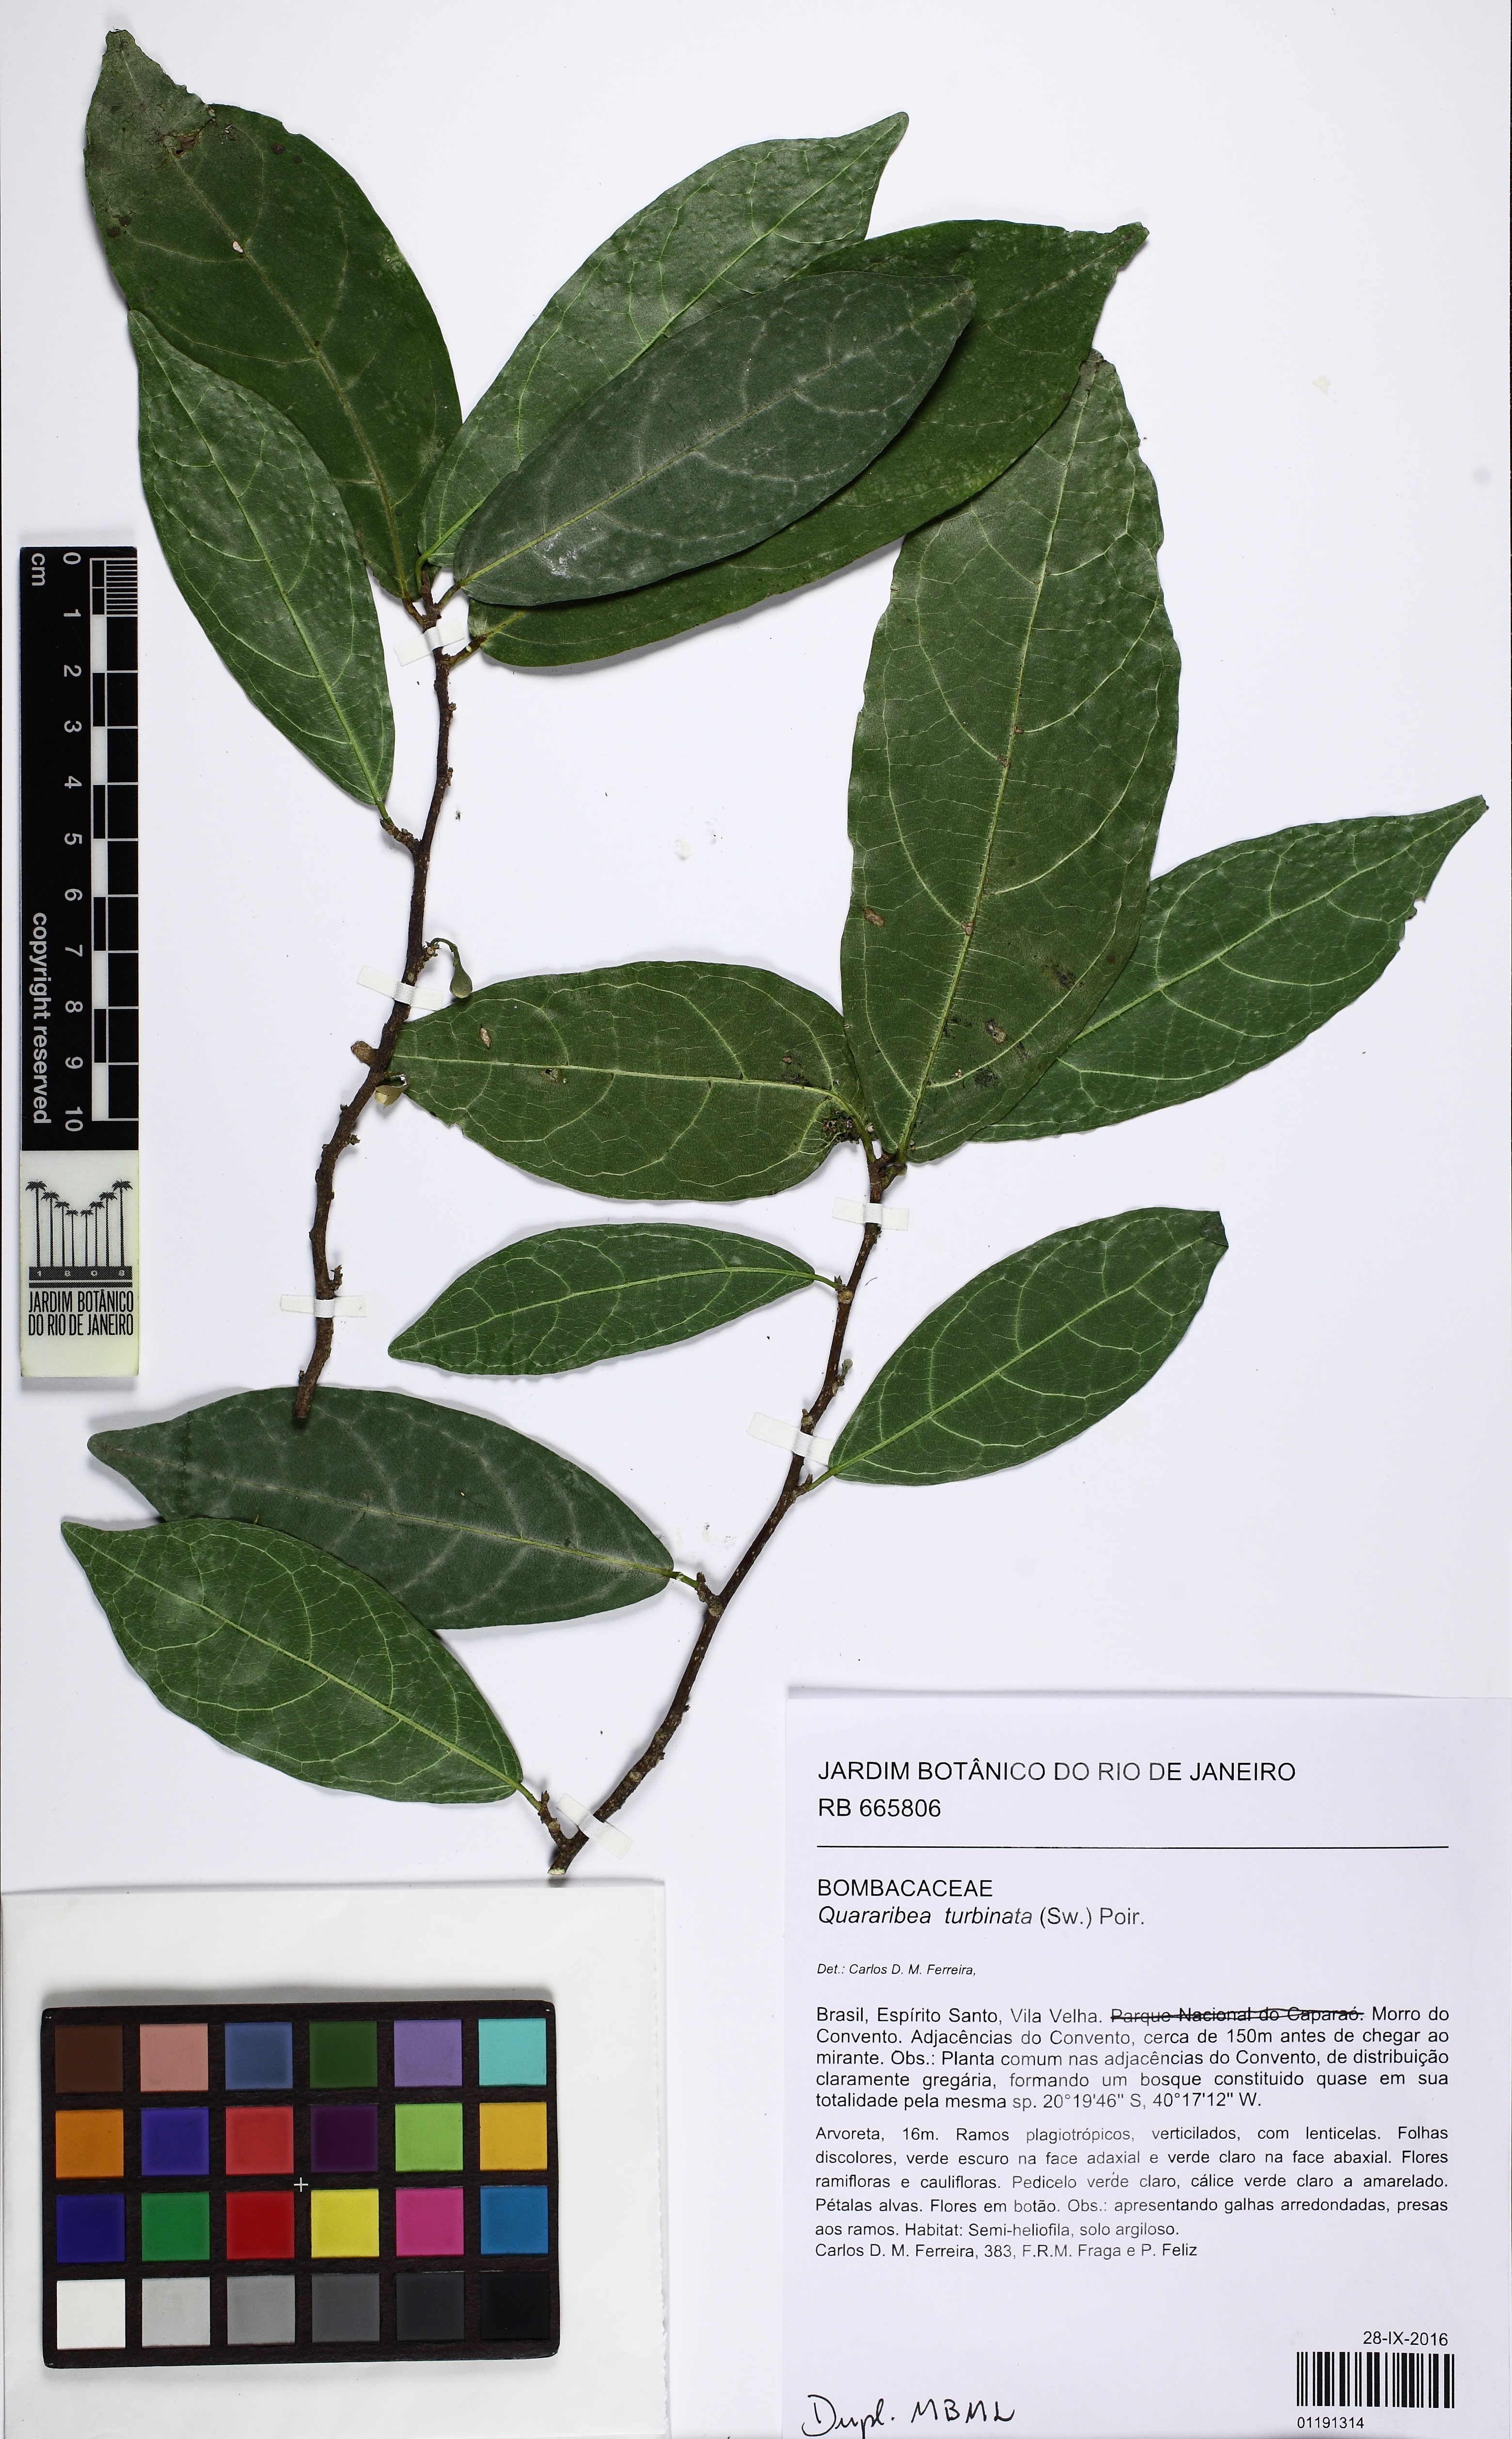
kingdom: Plantae
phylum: Tracheophyta
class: Magnoliopsida
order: Malvales
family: Malvaceae
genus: Quararibea
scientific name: Quararibea turbinata
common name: Swizzlestick-tree
